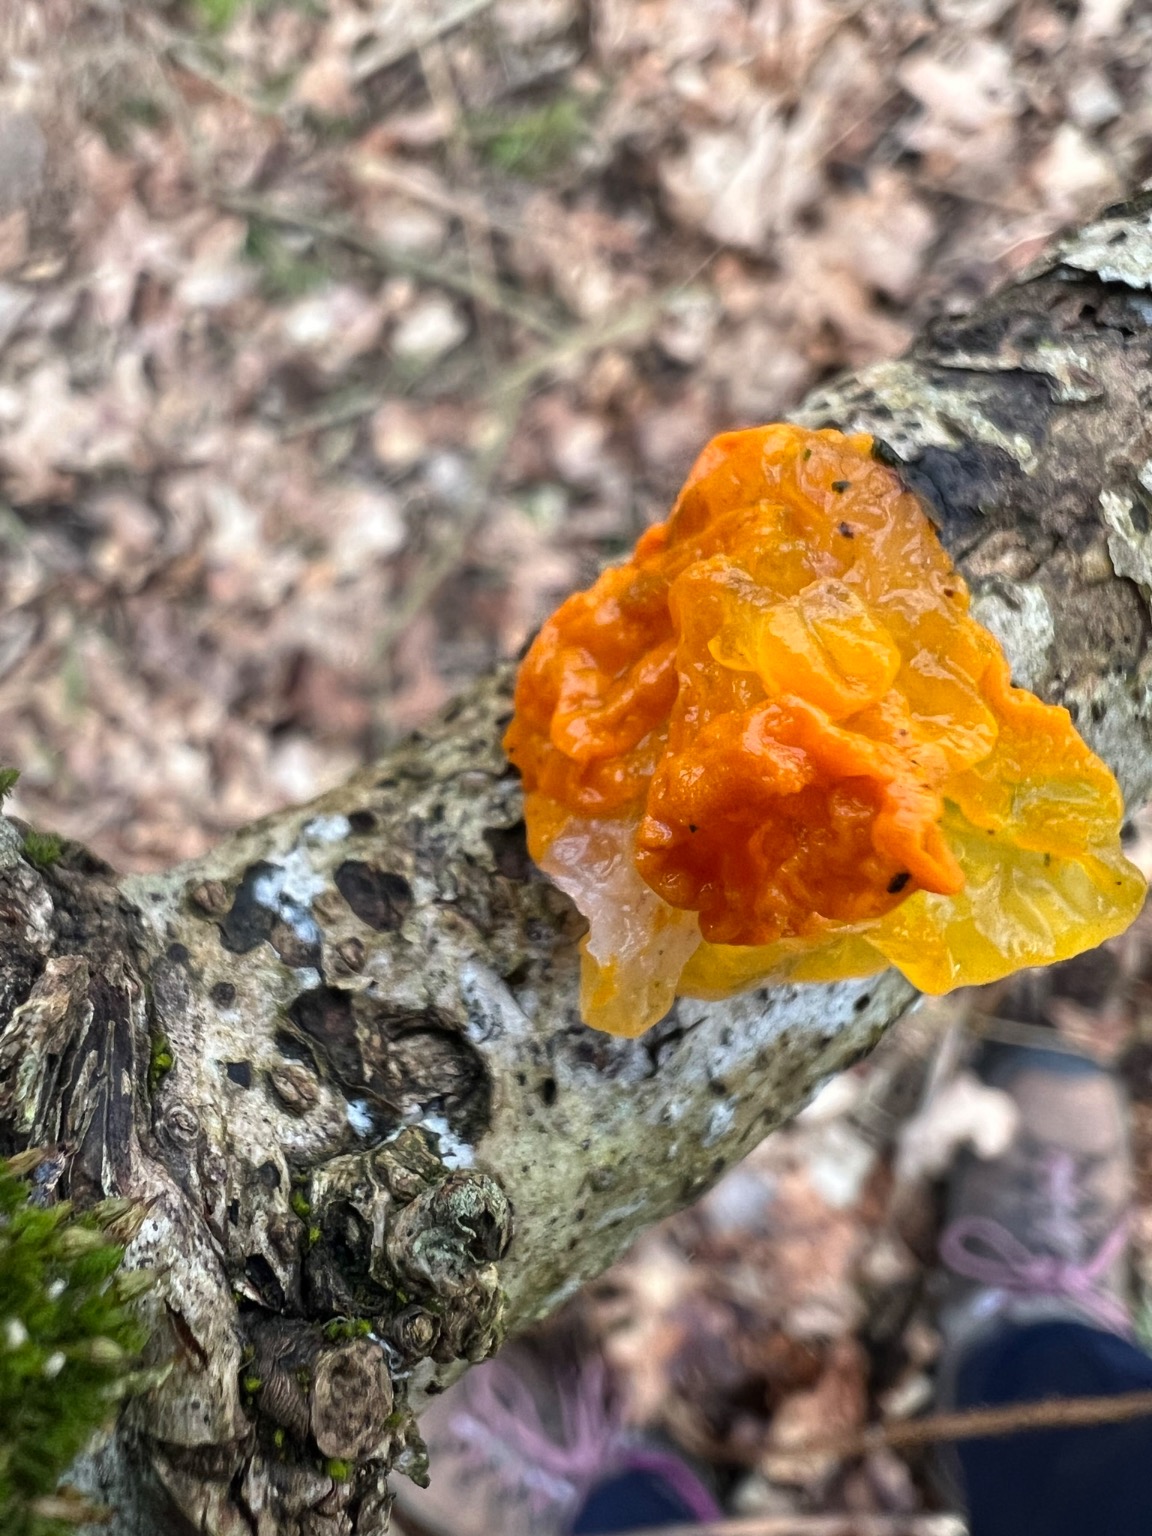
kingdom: Fungi
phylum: Basidiomycota
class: Tremellomycetes
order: Tremellales
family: Tremellaceae
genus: Tremella
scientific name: Tremella mesenterica
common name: Gul bævresvamp
